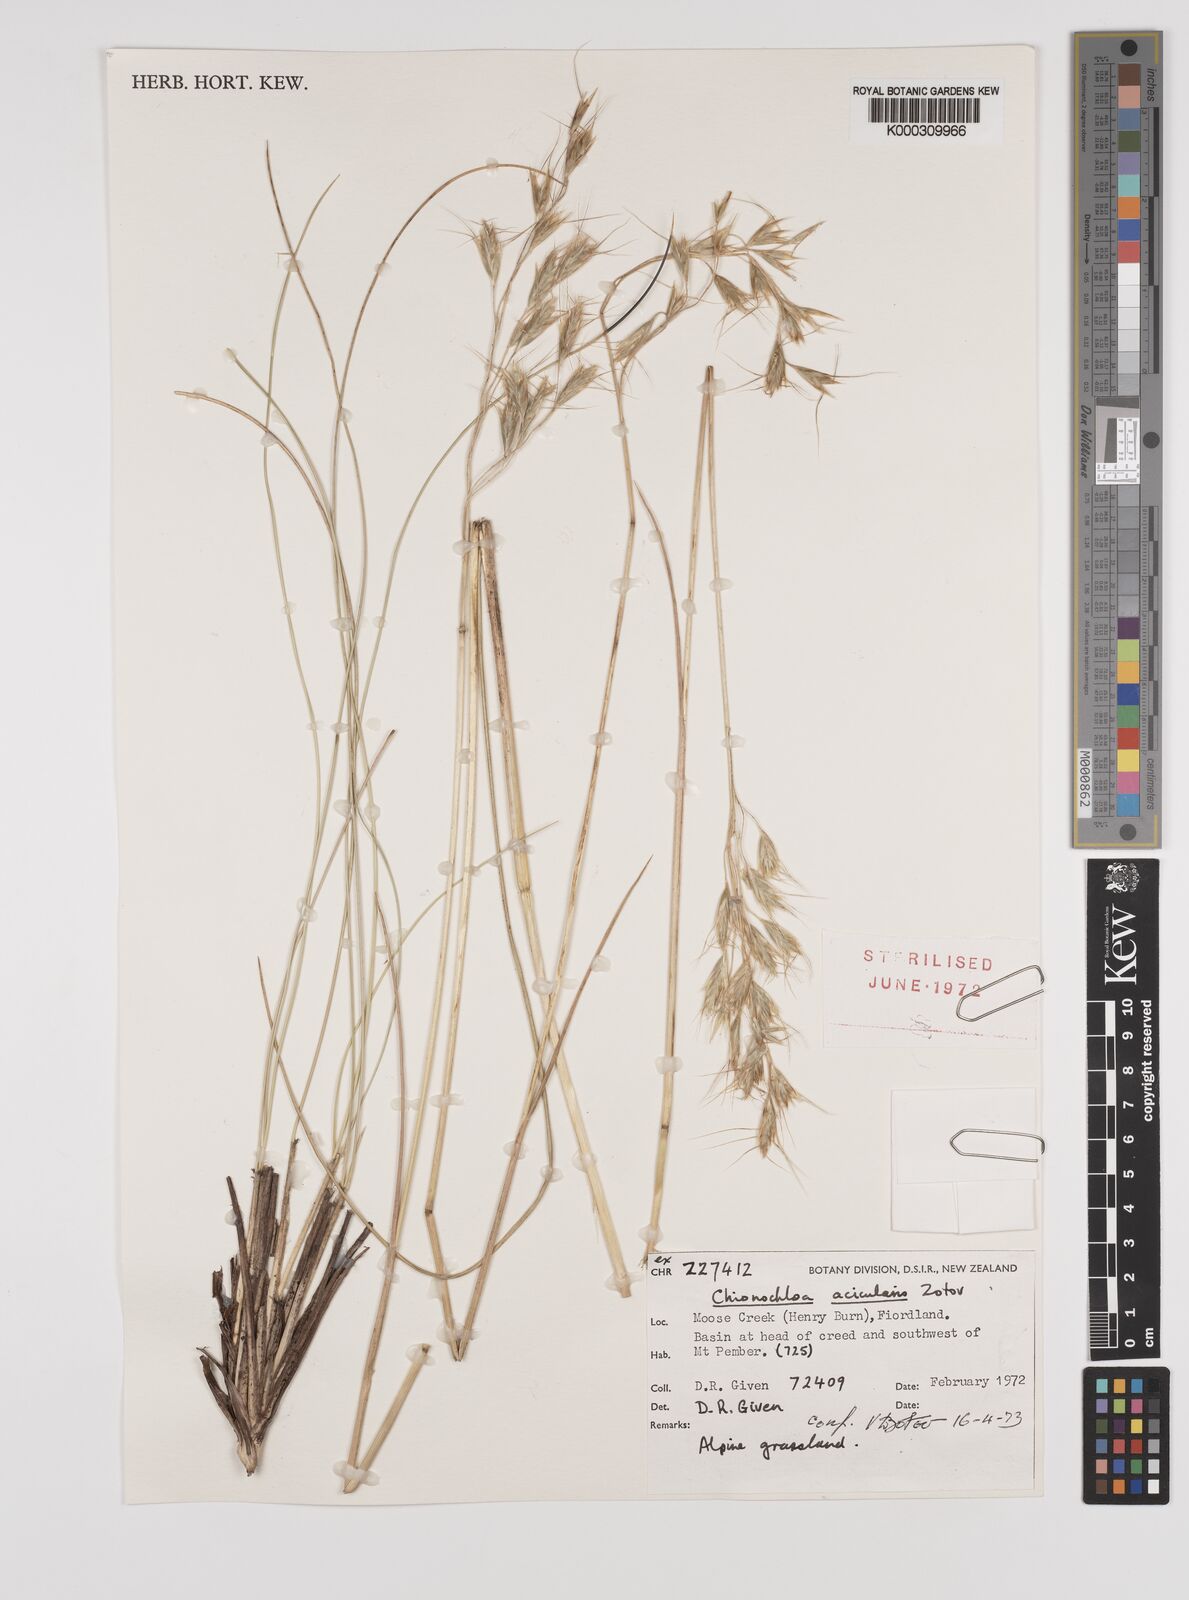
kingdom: Plantae
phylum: Tracheophyta
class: Liliopsida
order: Poales
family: Poaceae
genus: Chionochloa
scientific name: Chionochloa acicularis
